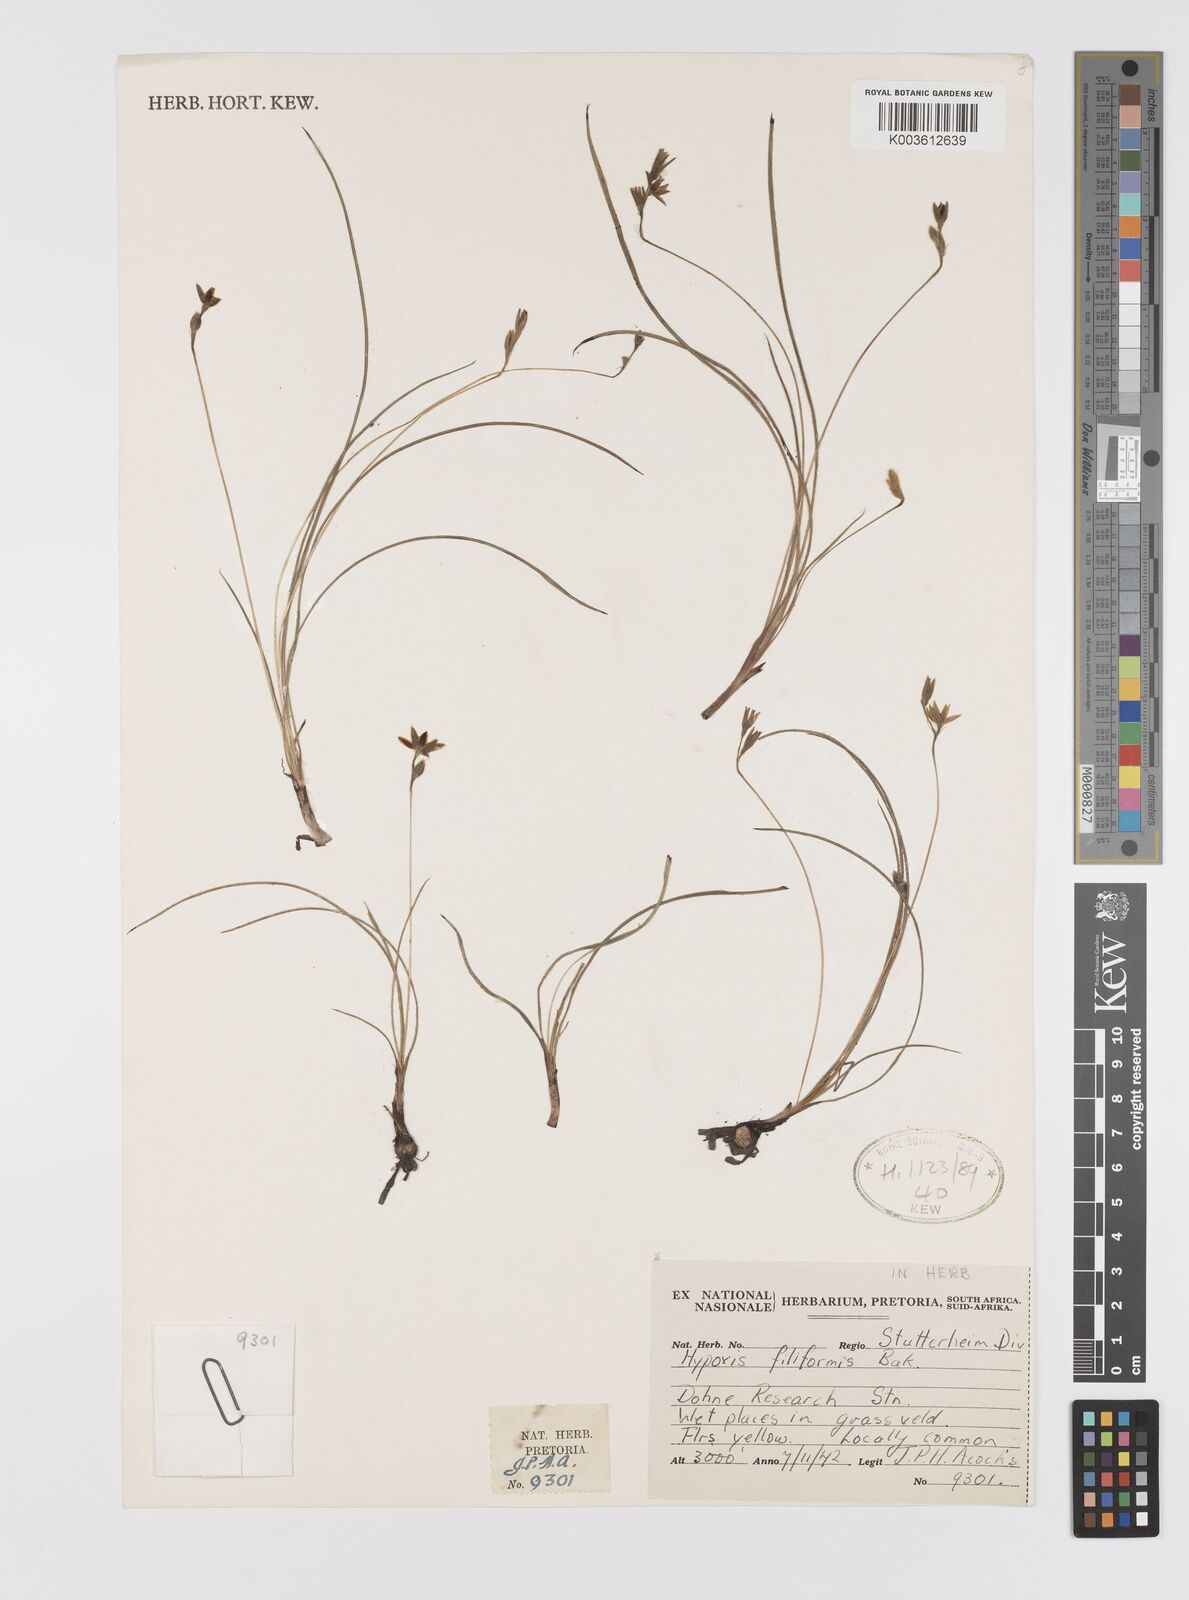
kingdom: Plantae
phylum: Tracheophyta
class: Liliopsida
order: Asparagales
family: Hypoxidaceae
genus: Hypoxis
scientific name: Hypoxis filiformis
